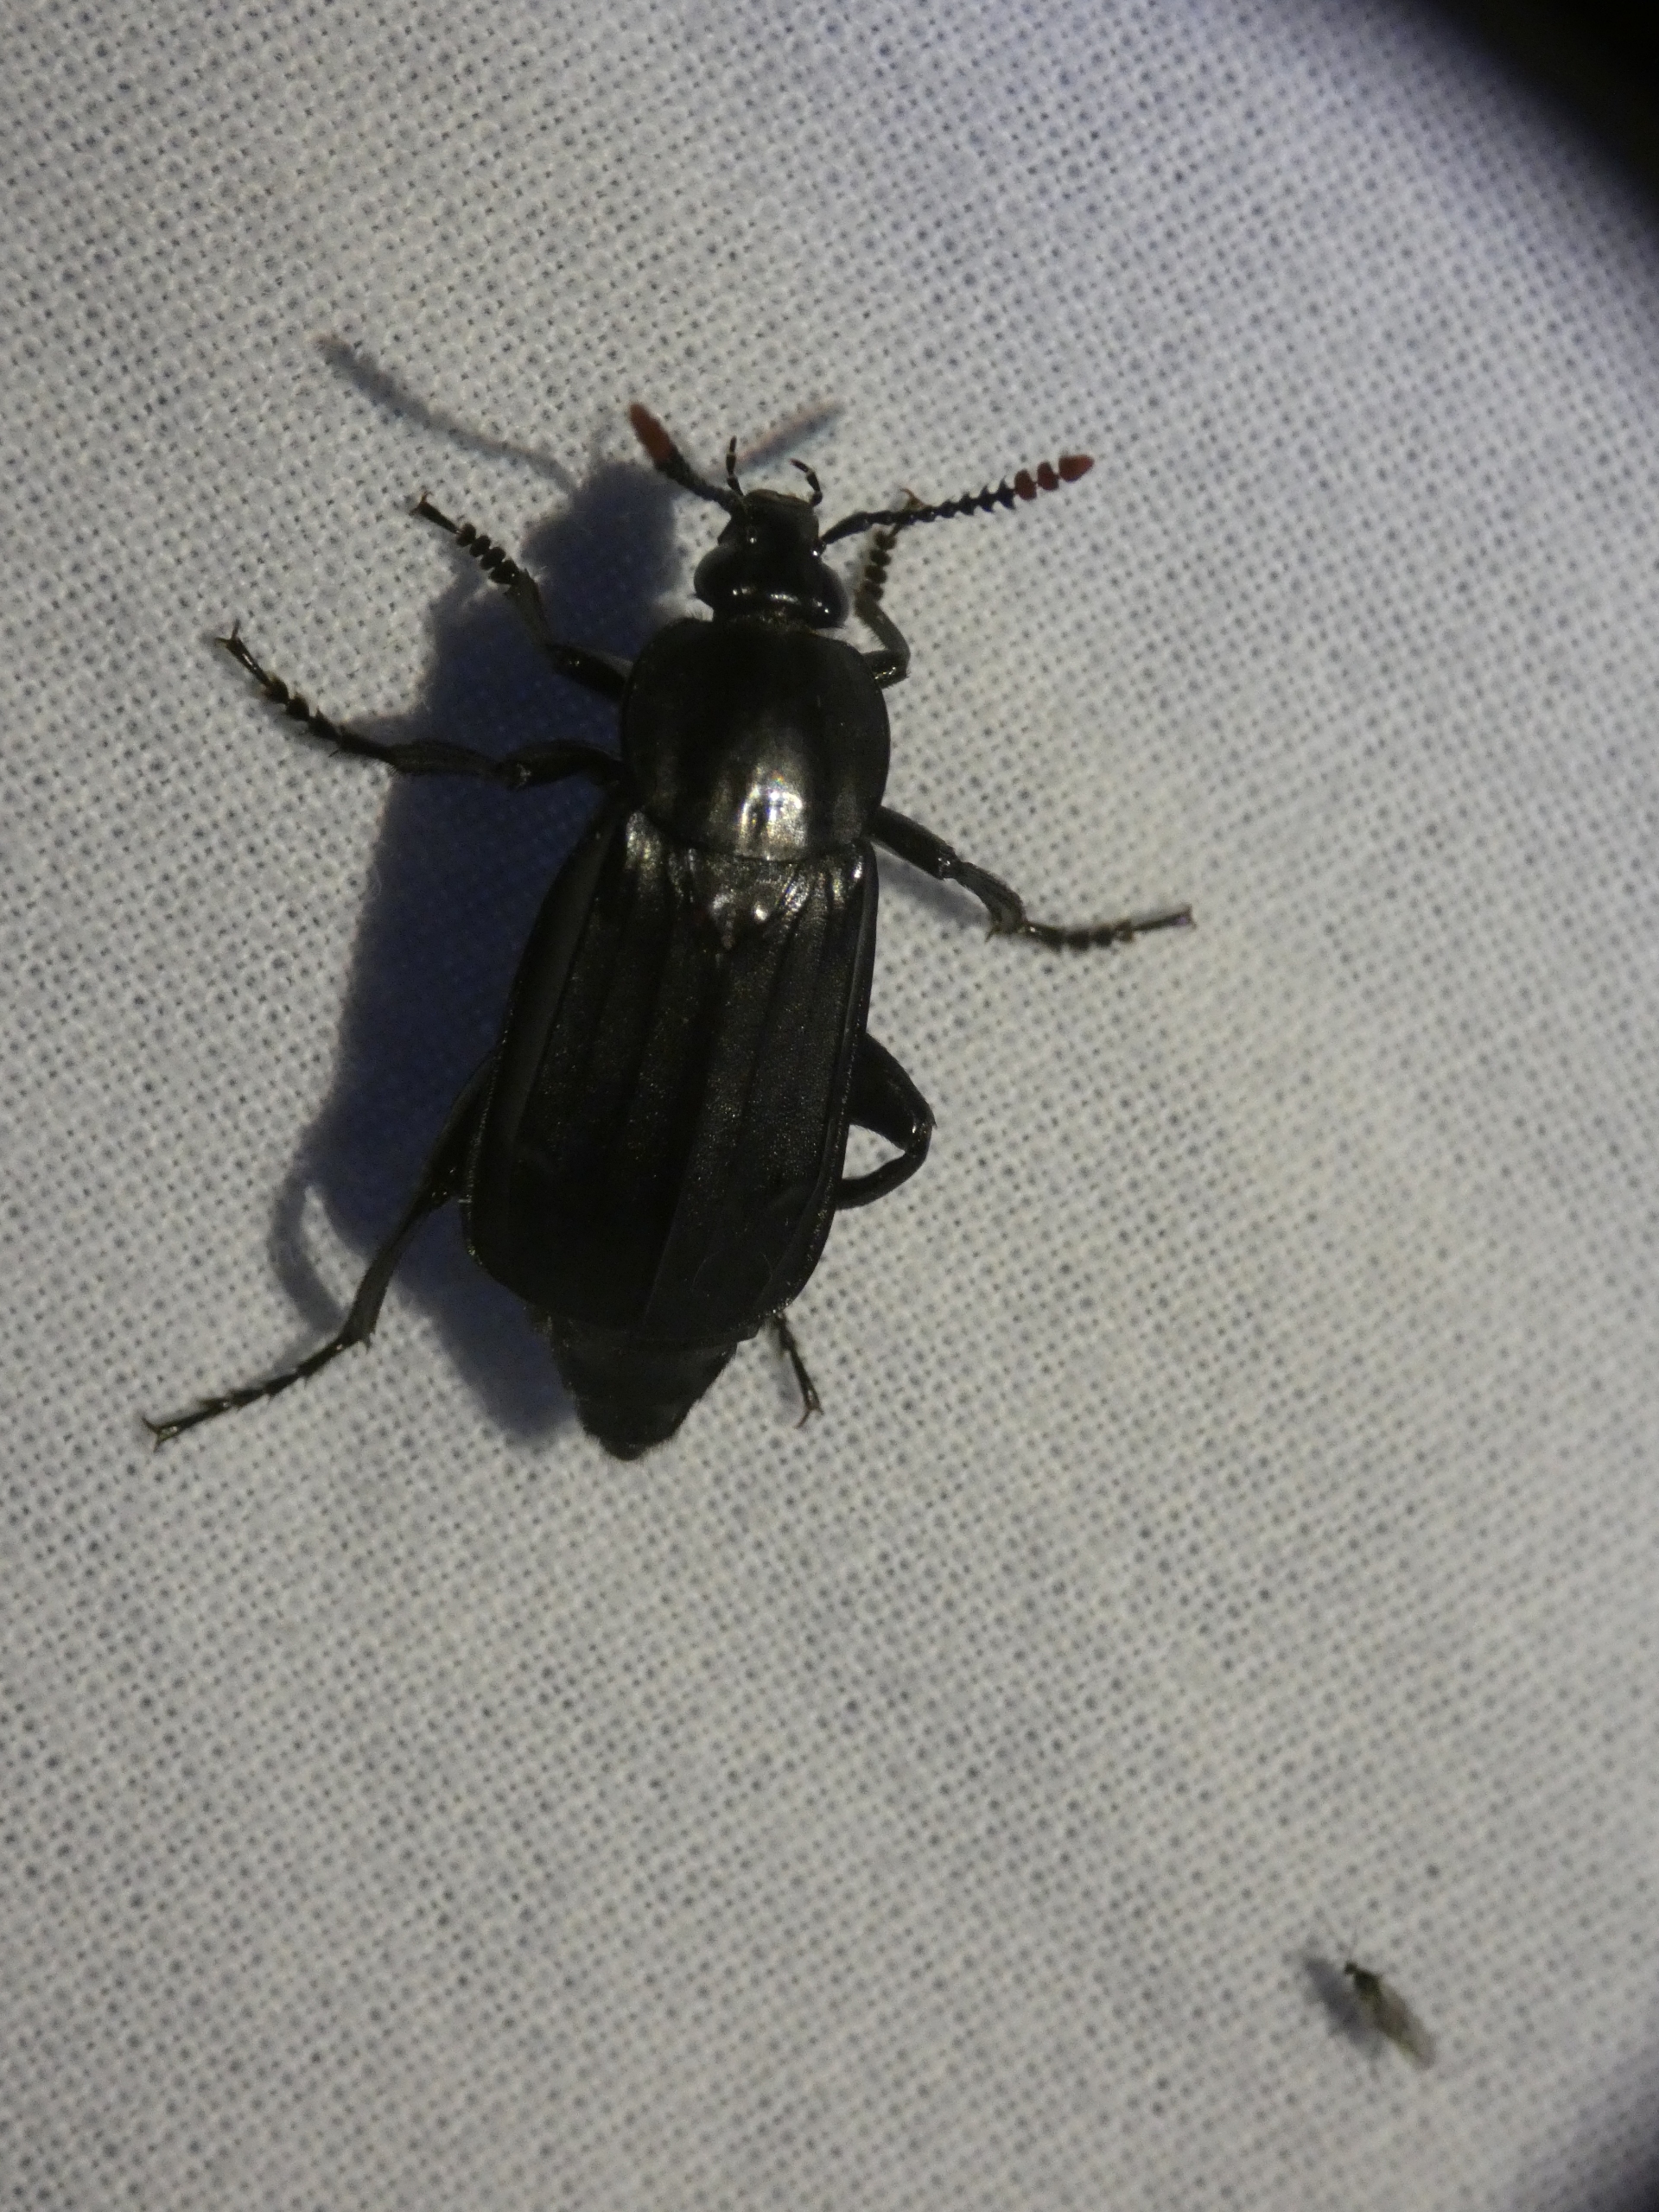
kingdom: Animalia
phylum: Arthropoda
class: Insecta
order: Coleoptera
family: Staphylinidae
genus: Necrodes
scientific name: Necrodes littoralis
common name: Ligrøver
